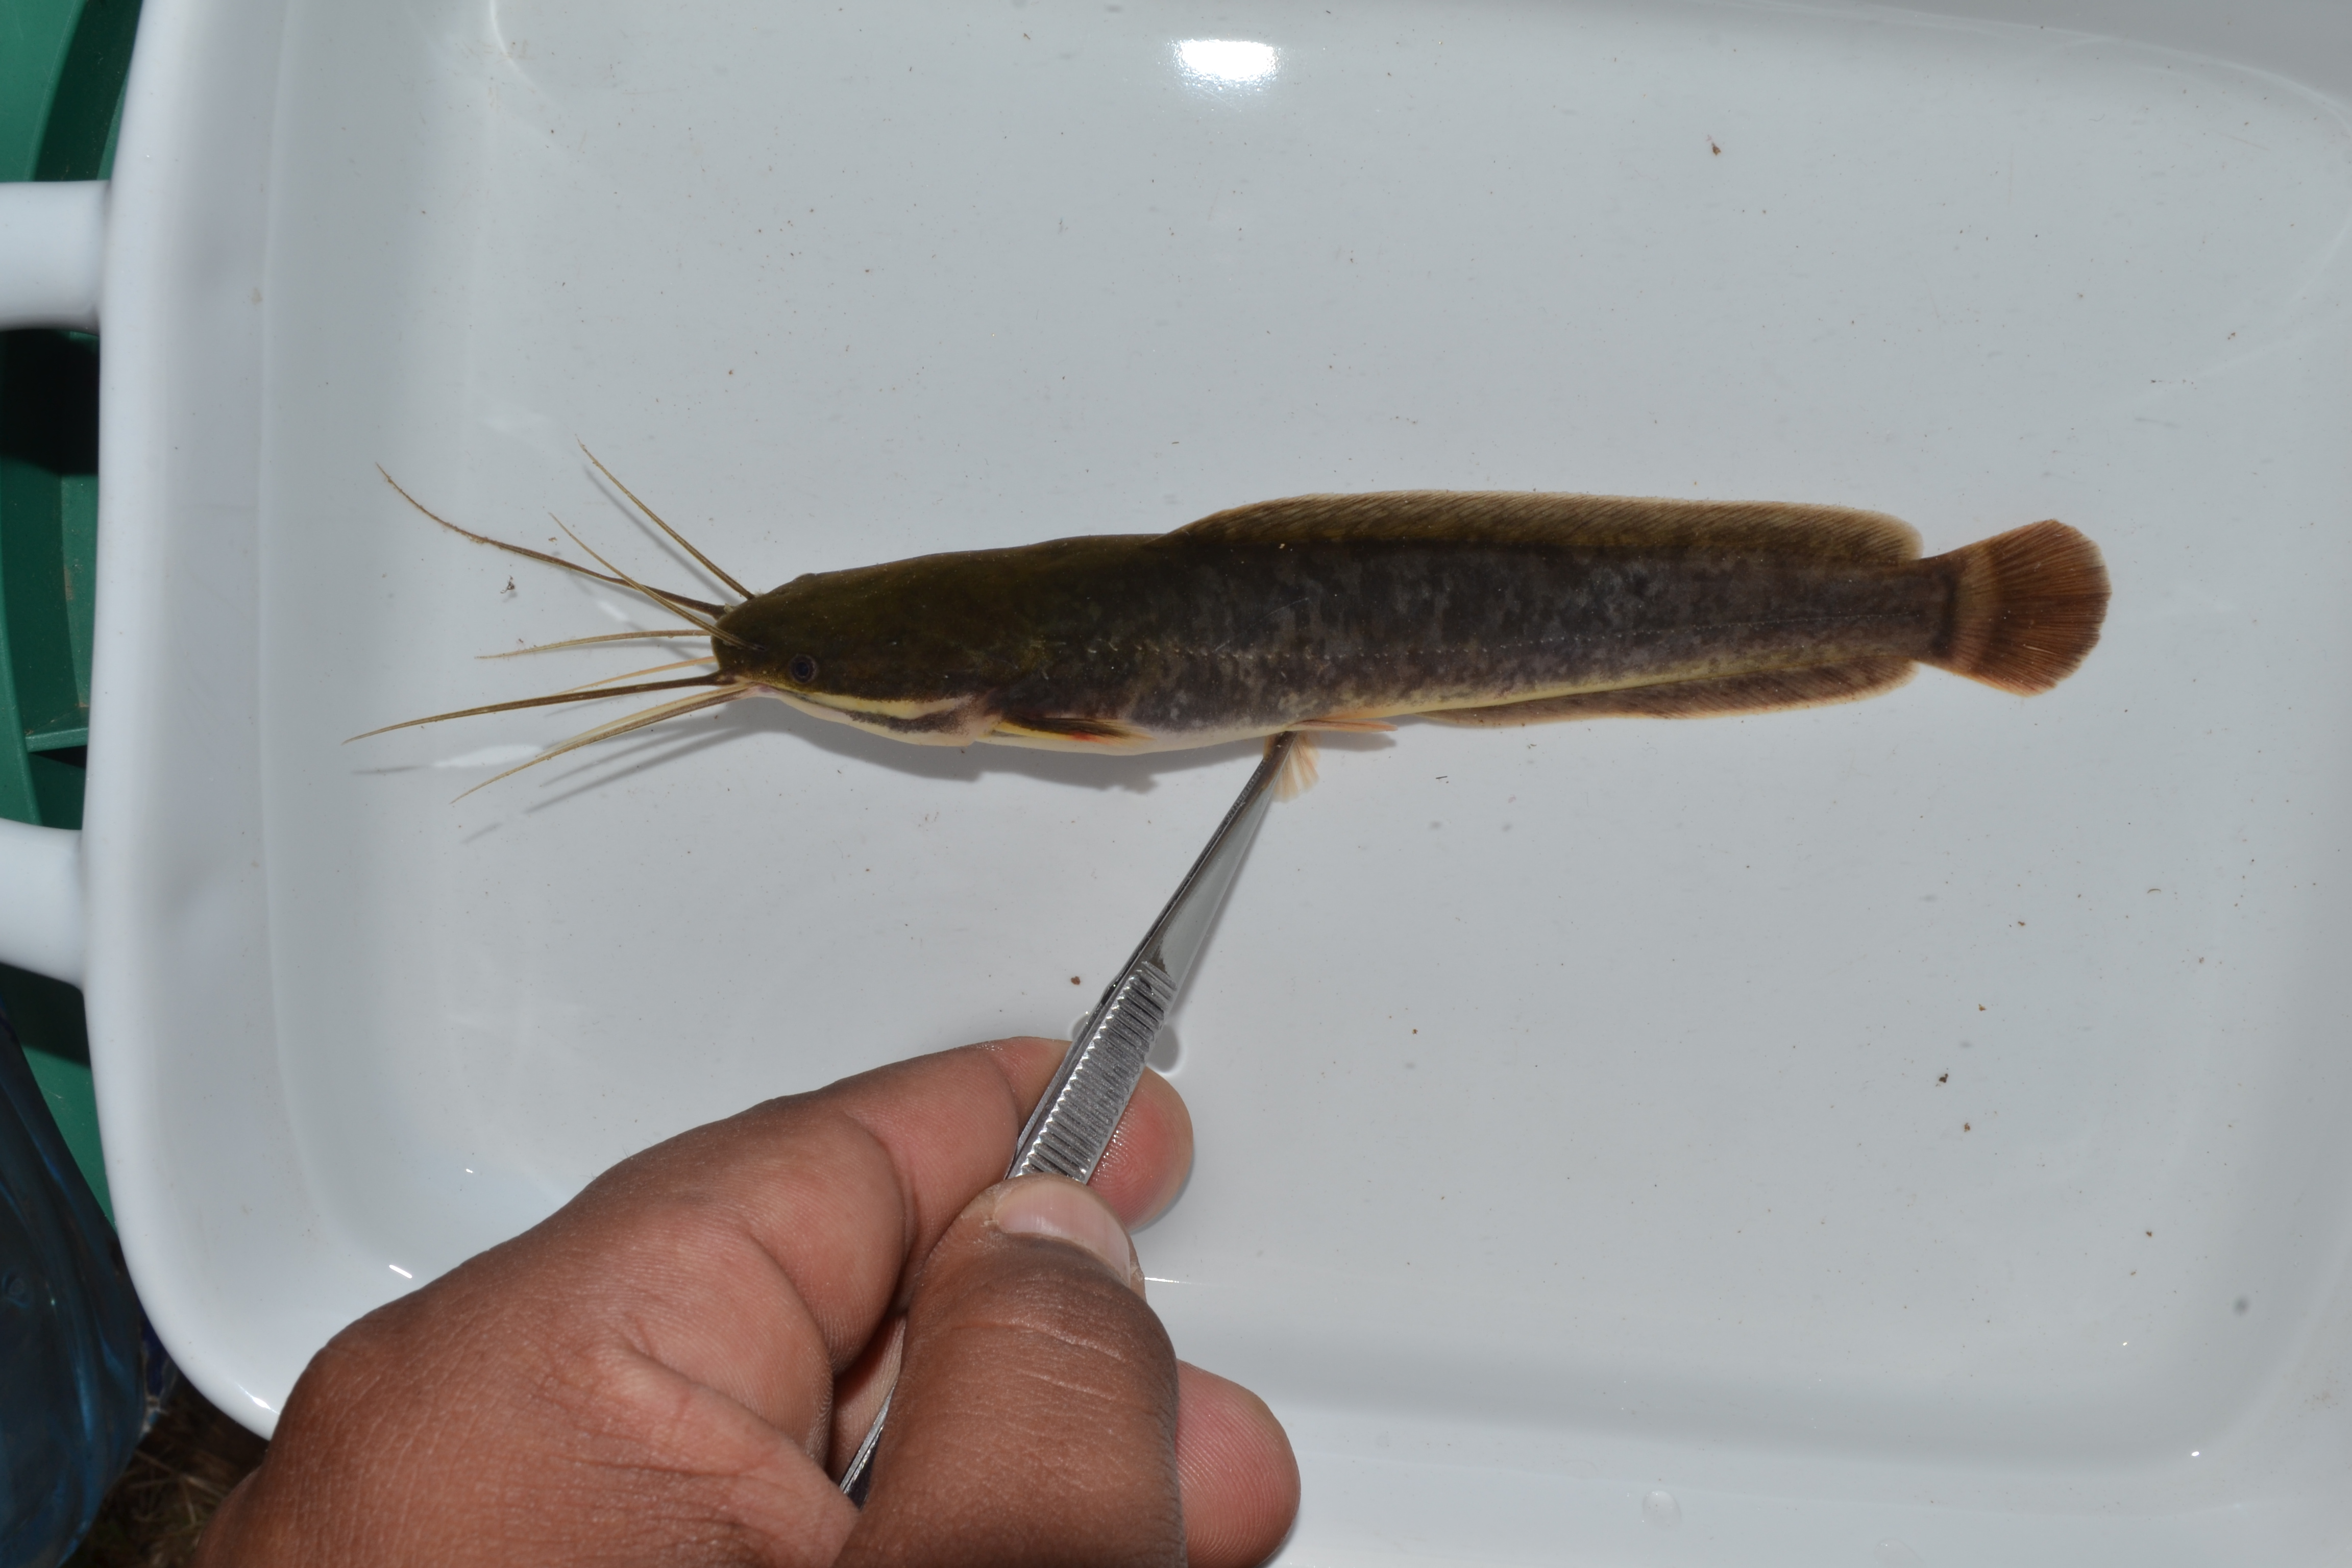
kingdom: Animalia
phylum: Chordata
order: Siluriformes
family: Clariidae
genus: Clarias
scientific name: Clarias gariepinus
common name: African catfish
